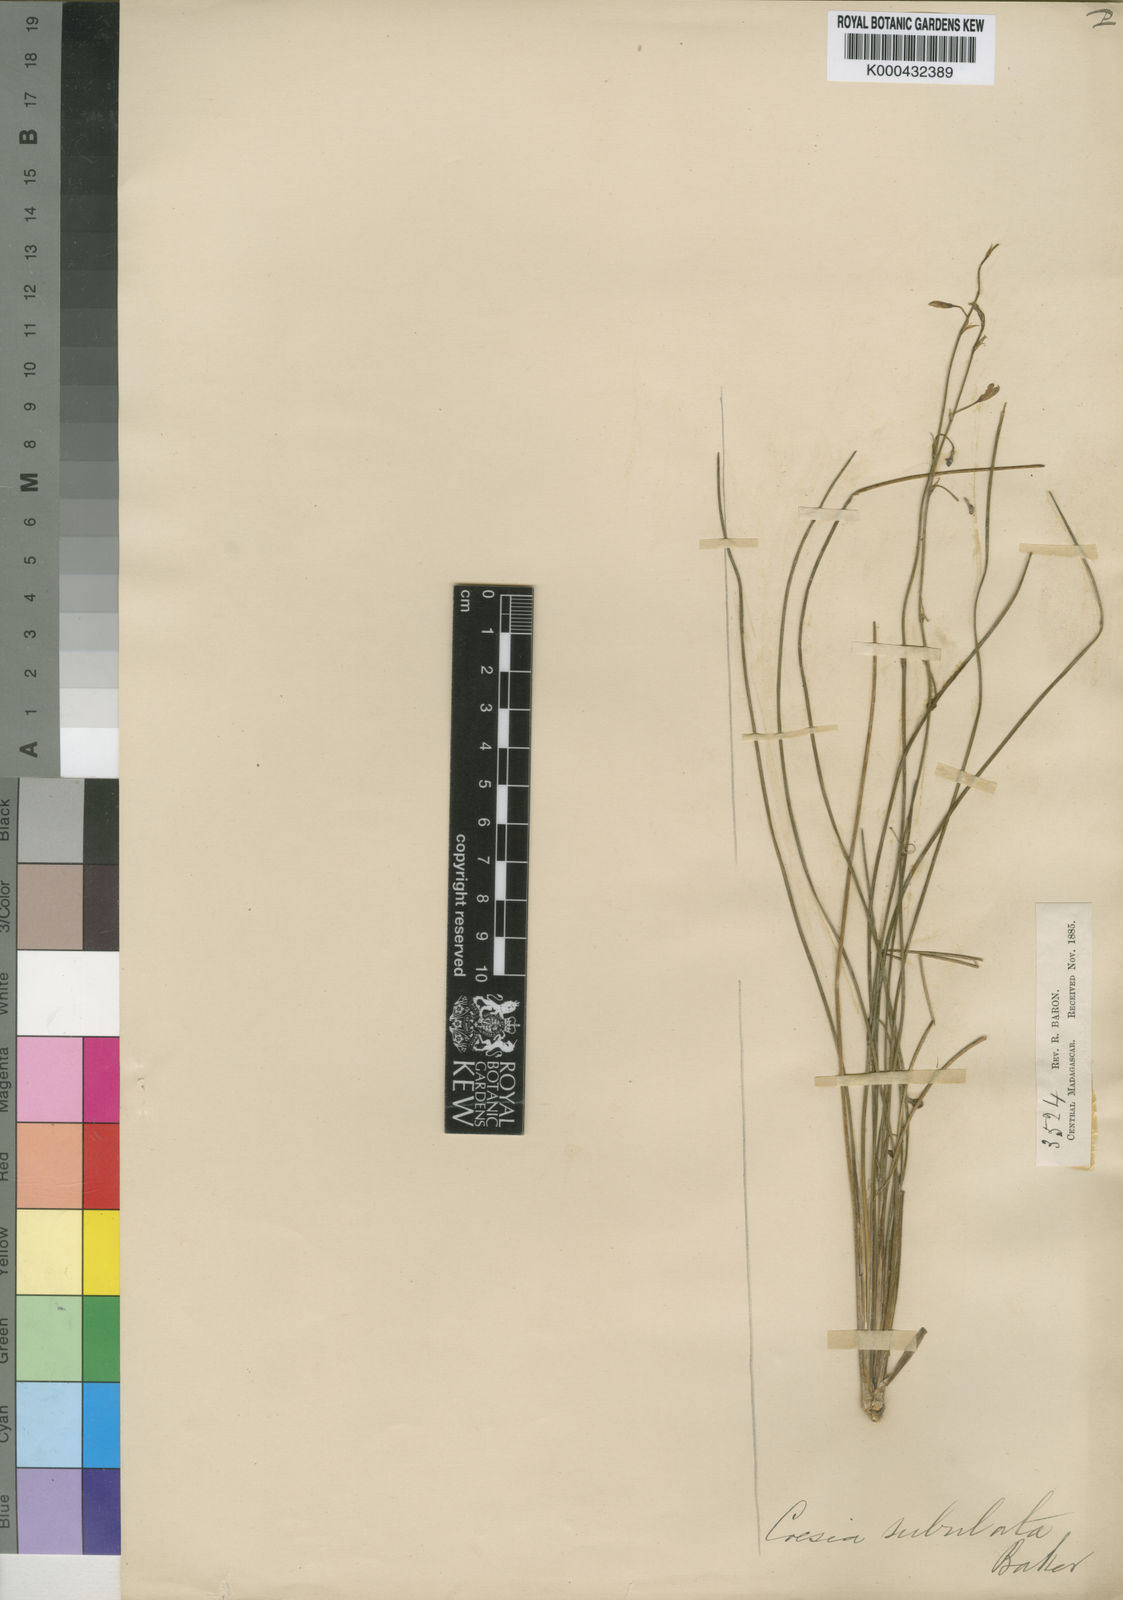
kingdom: Plantae
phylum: Tracheophyta
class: Liliopsida
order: Asparagales
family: Asphodelaceae
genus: Caesia
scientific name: Caesia subulata
